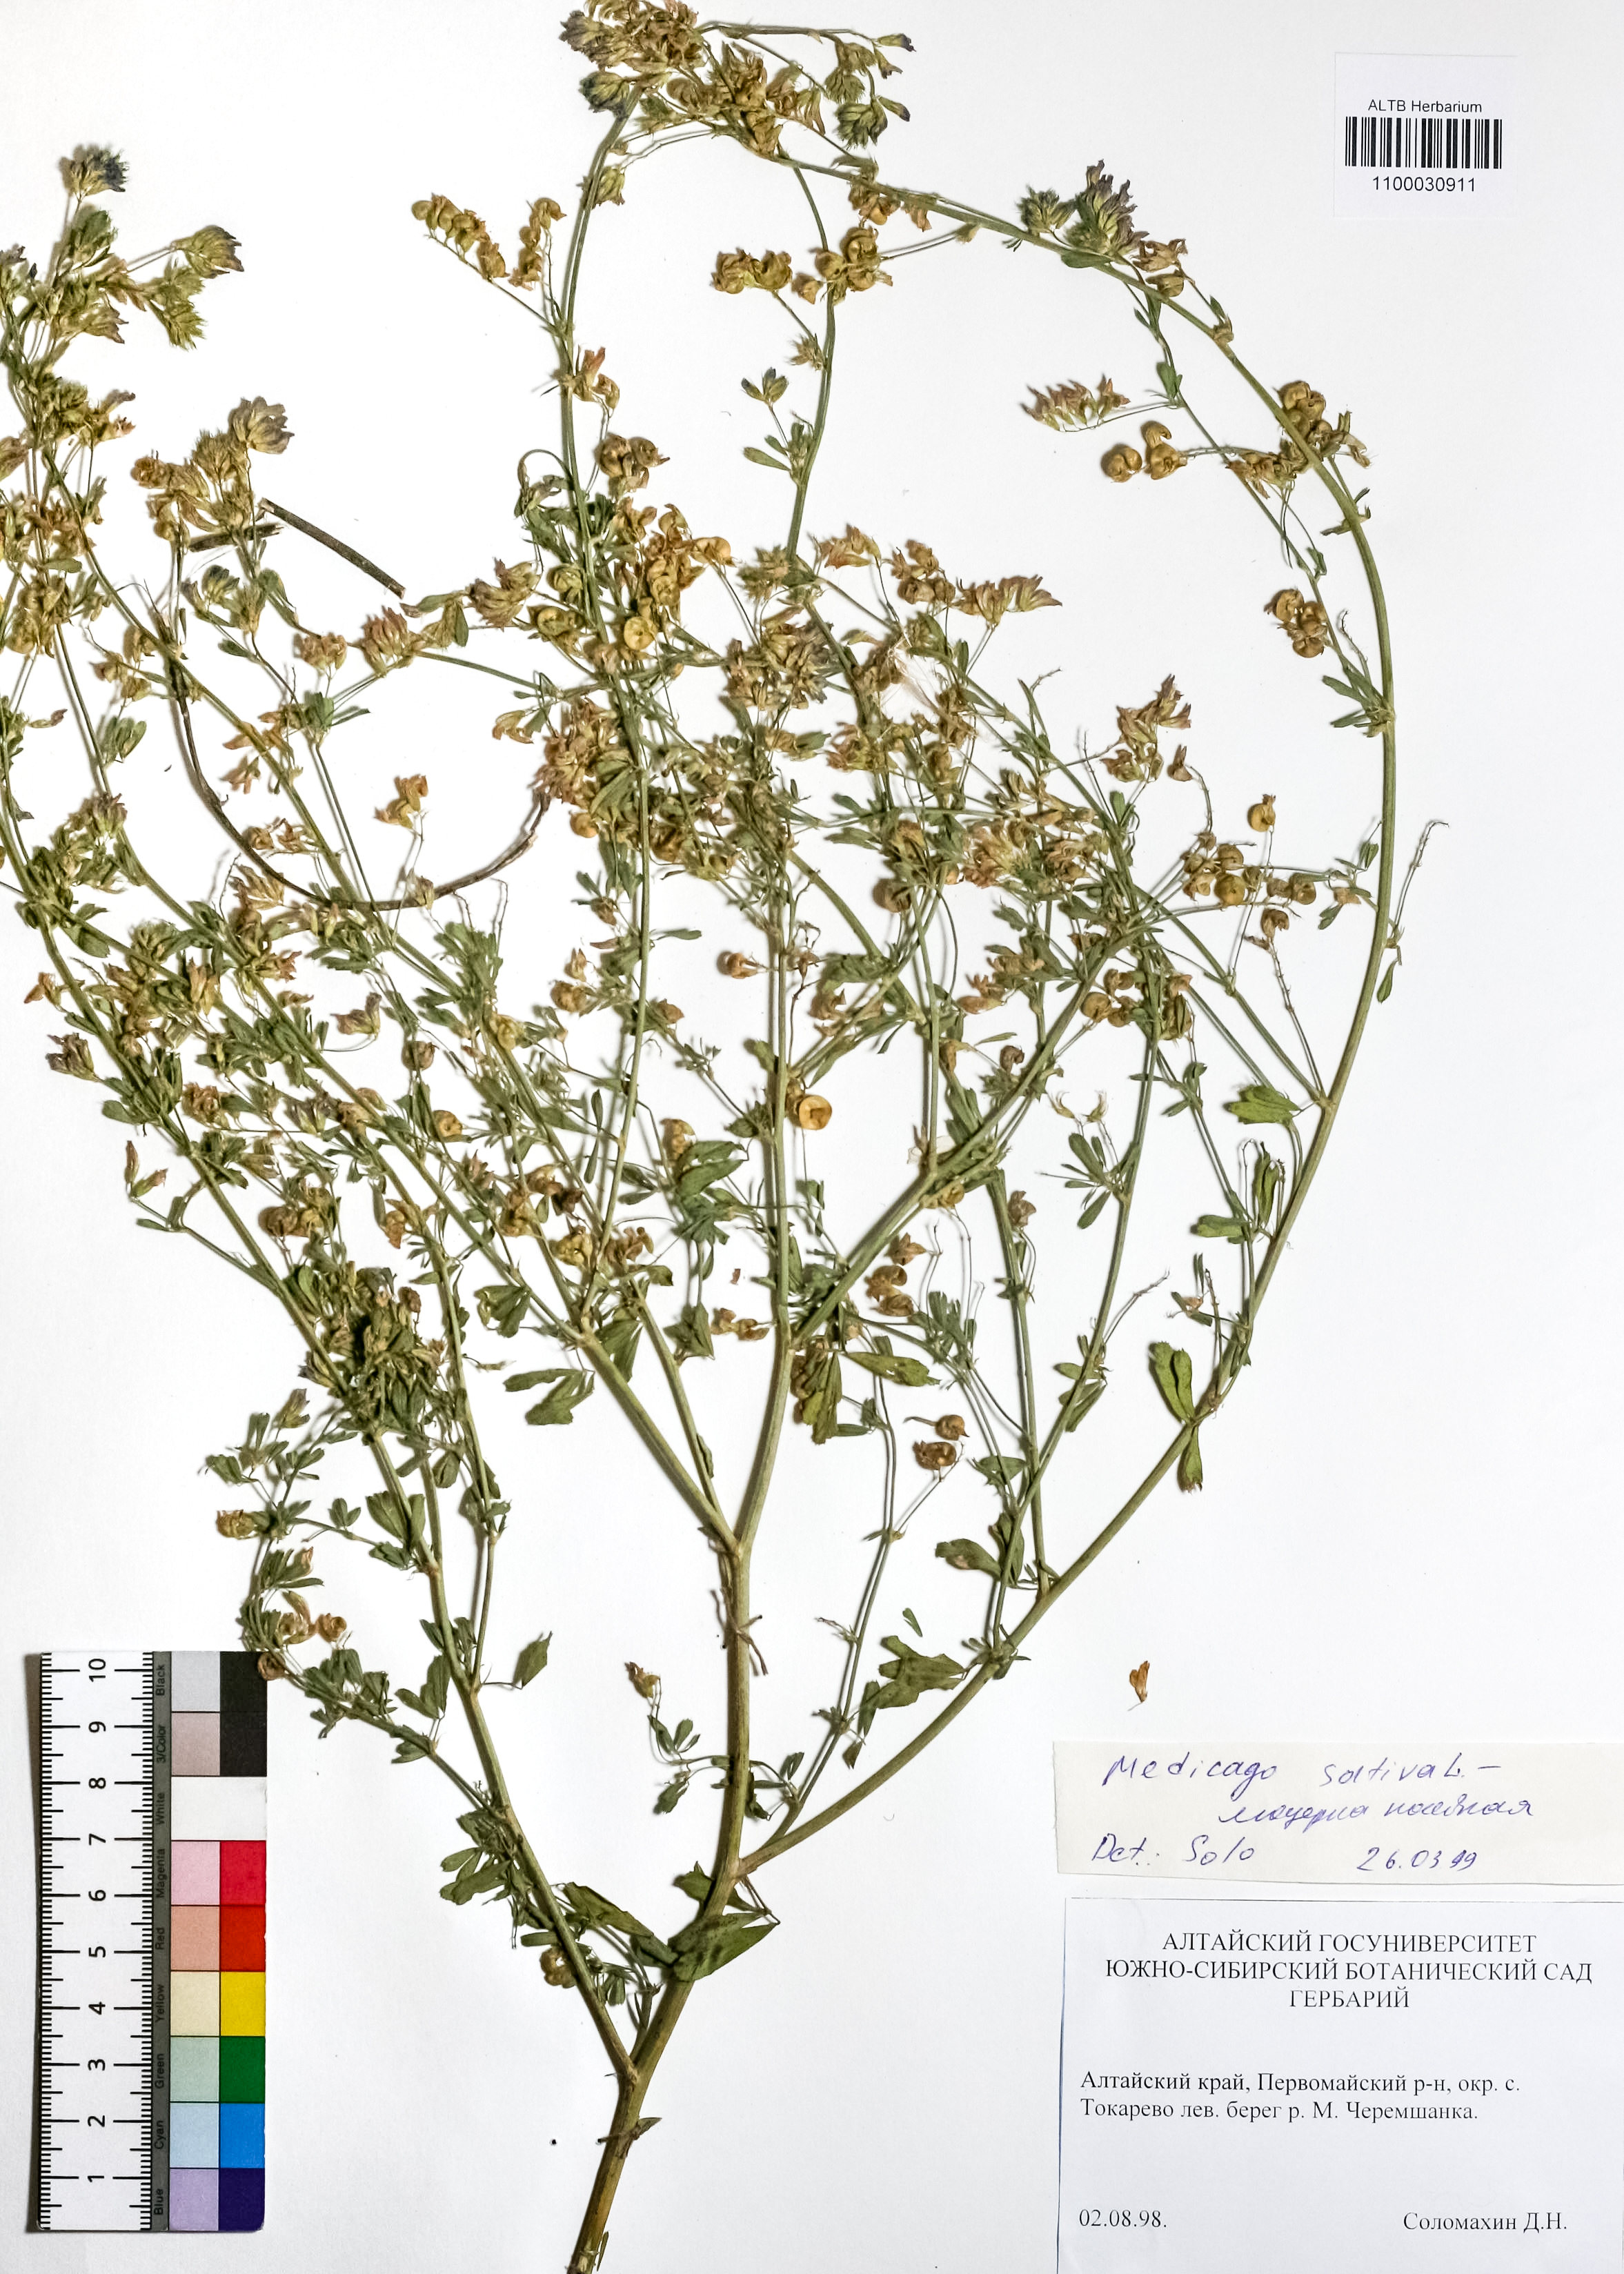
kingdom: Plantae
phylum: Tracheophyta
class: Magnoliopsida
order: Fabales
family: Fabaceae
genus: Medicago
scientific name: Medicago sativa
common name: Alfalfa
